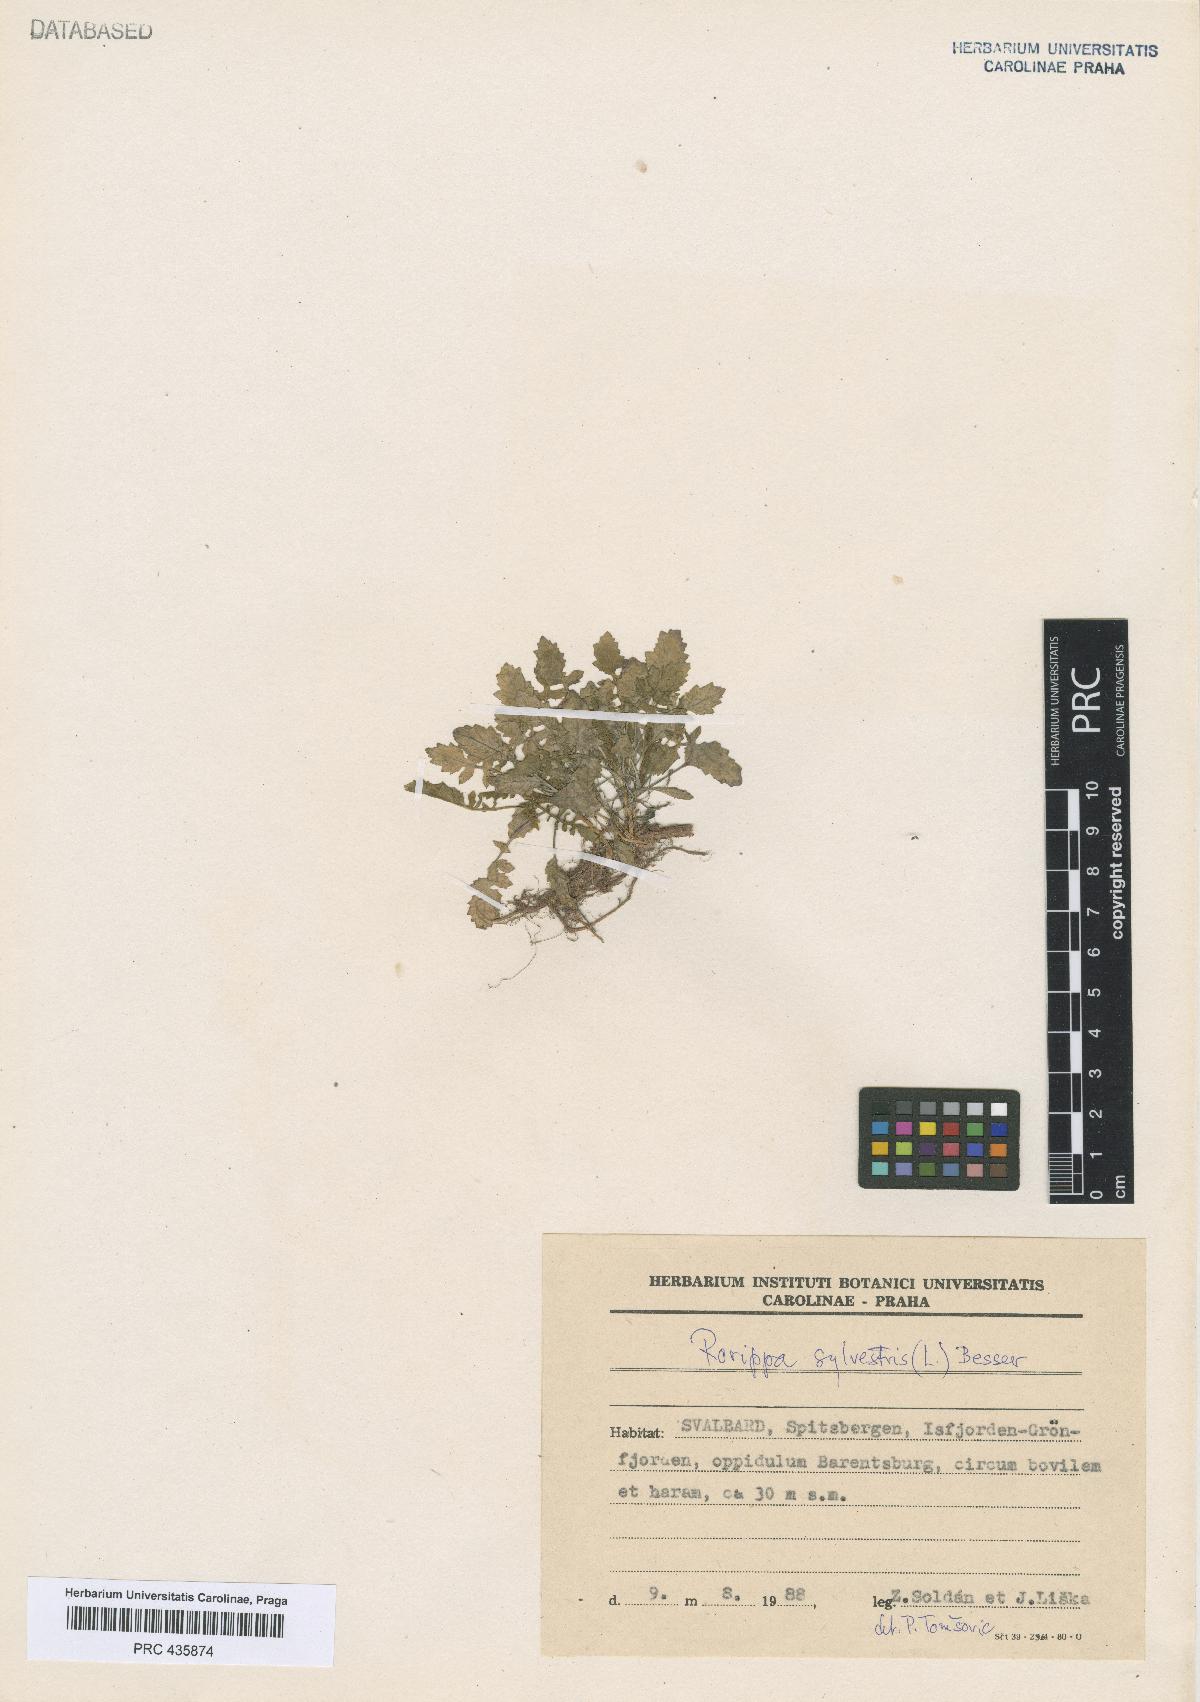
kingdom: Plantae
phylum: Tracheophyta
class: Magnoliopsida
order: Brassicales
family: Brassicaceae
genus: Rorippa
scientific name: Rorippa sylvestris
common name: Creeping yellowcress
